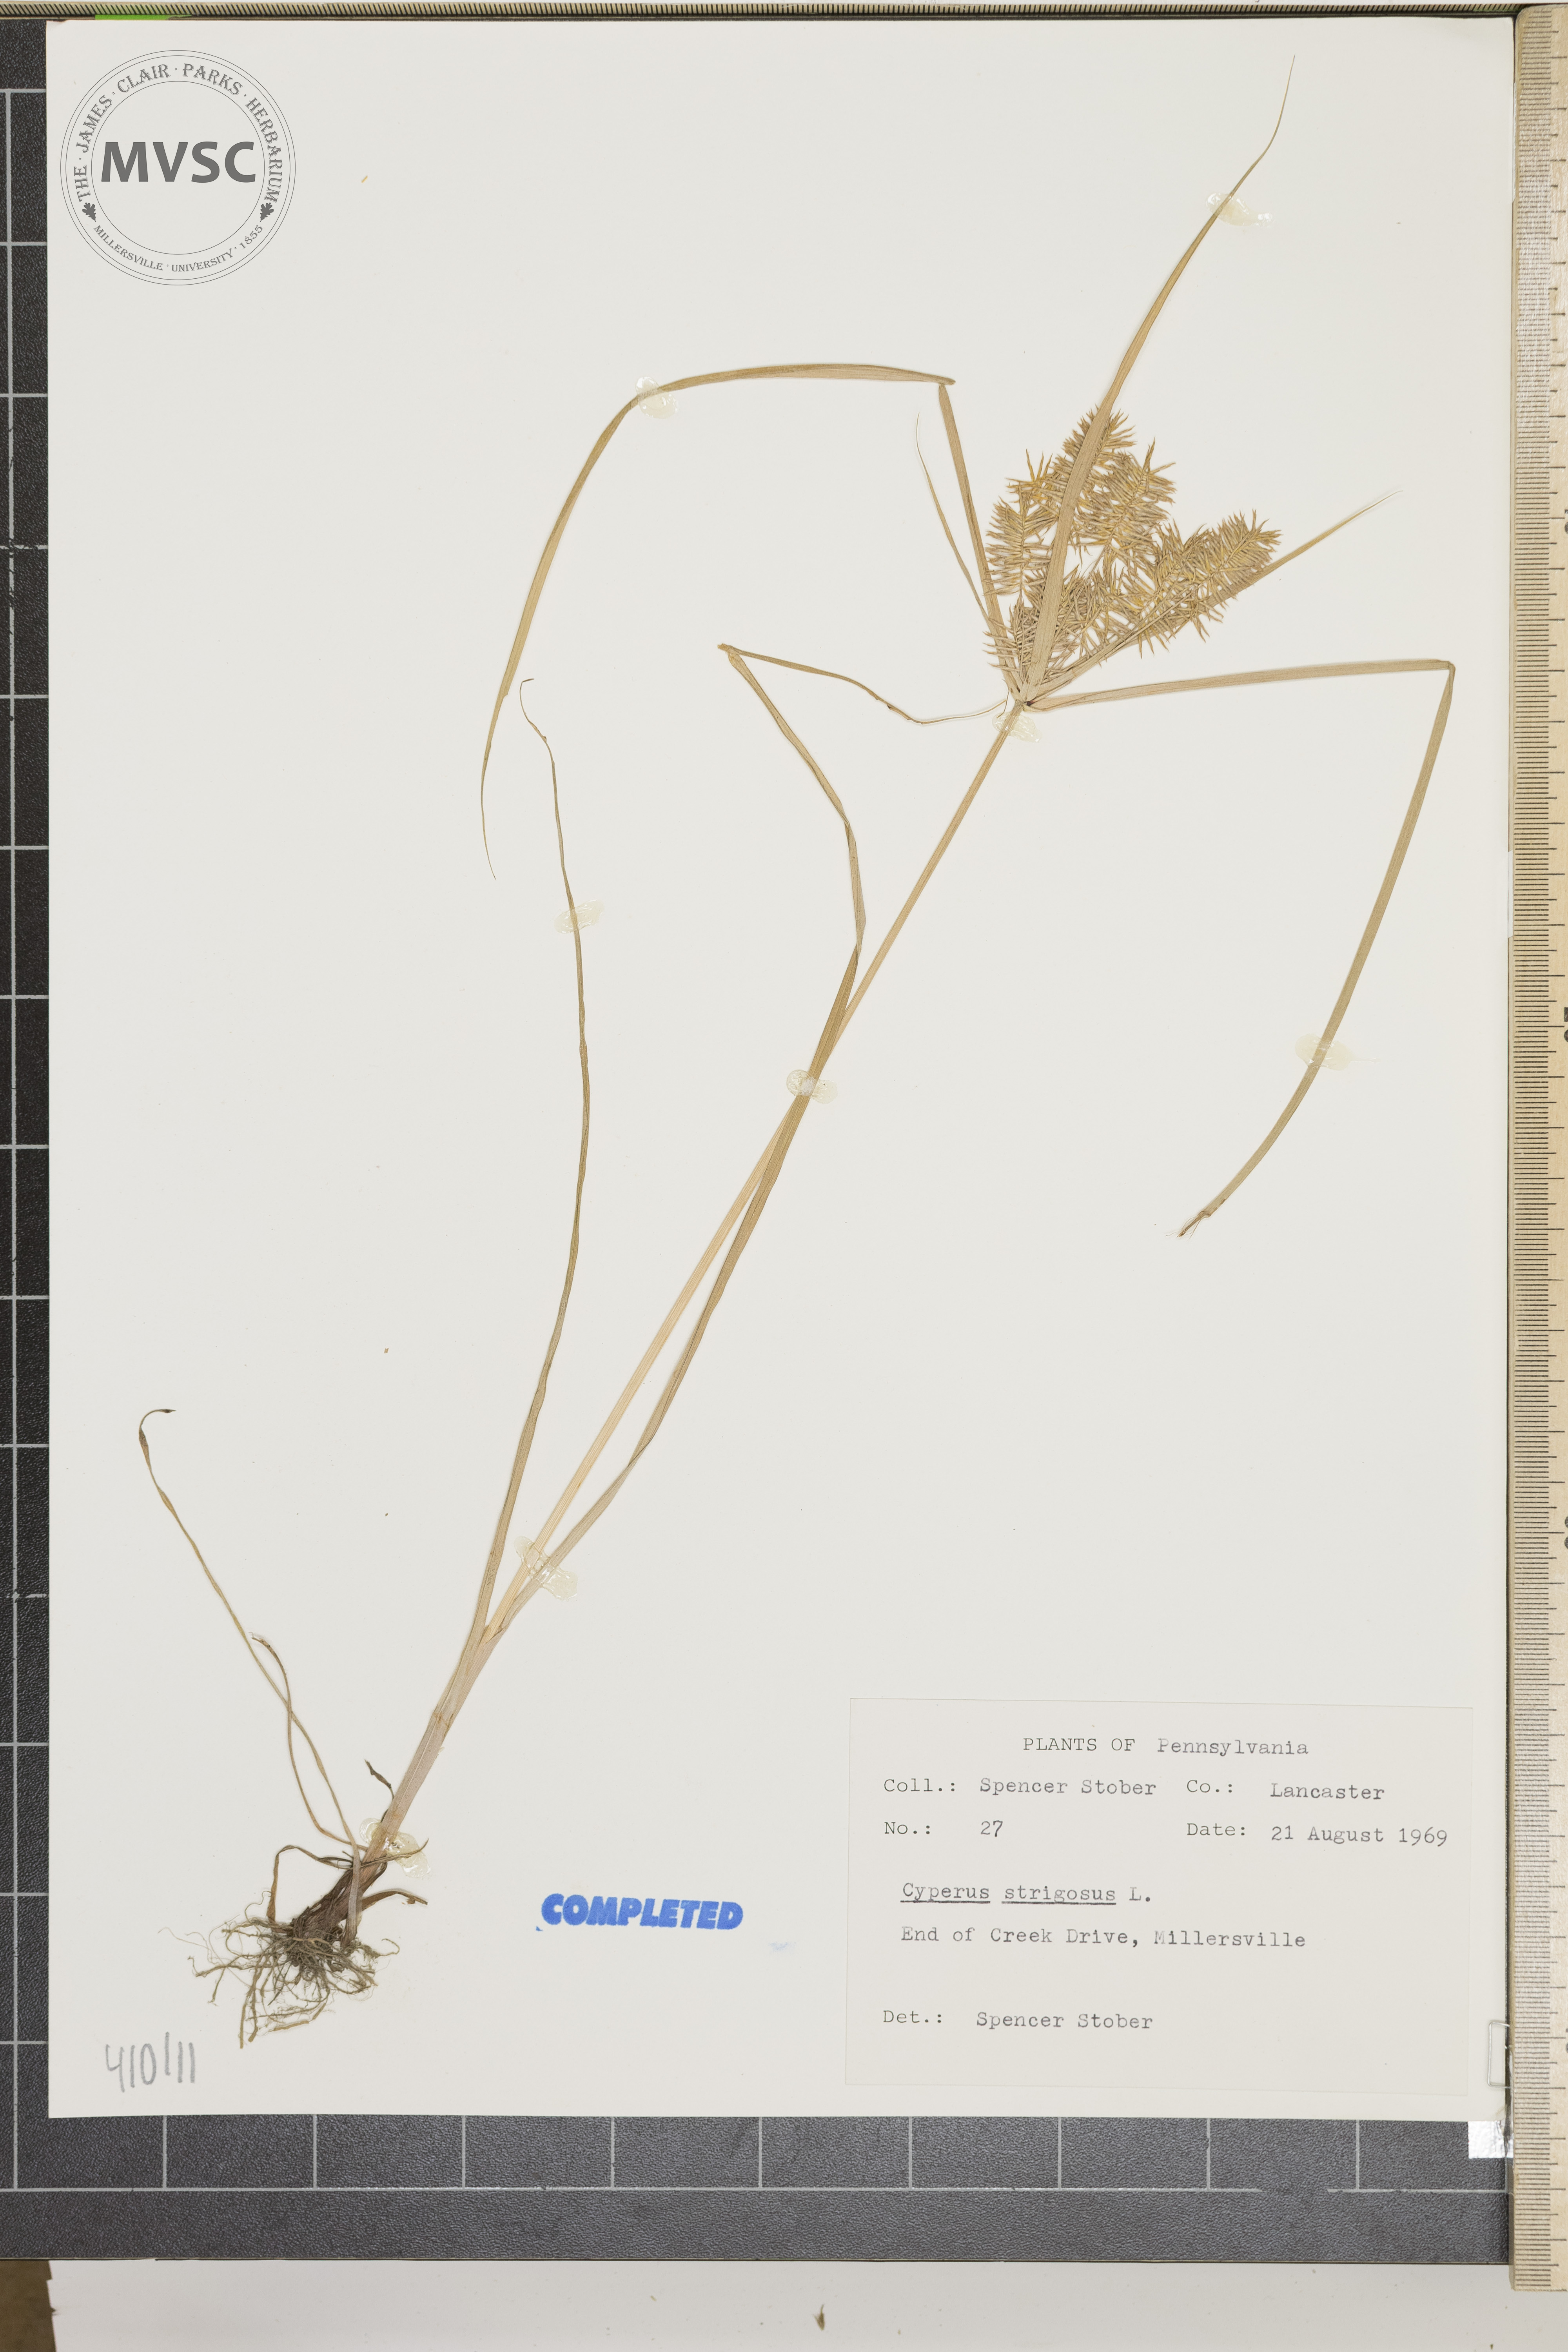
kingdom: Plantae
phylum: Tracheophyta
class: Liliopsida
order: Poales
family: Cyperaceae
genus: Cyperus
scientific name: Cyperus strigosus
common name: False nutsedge
